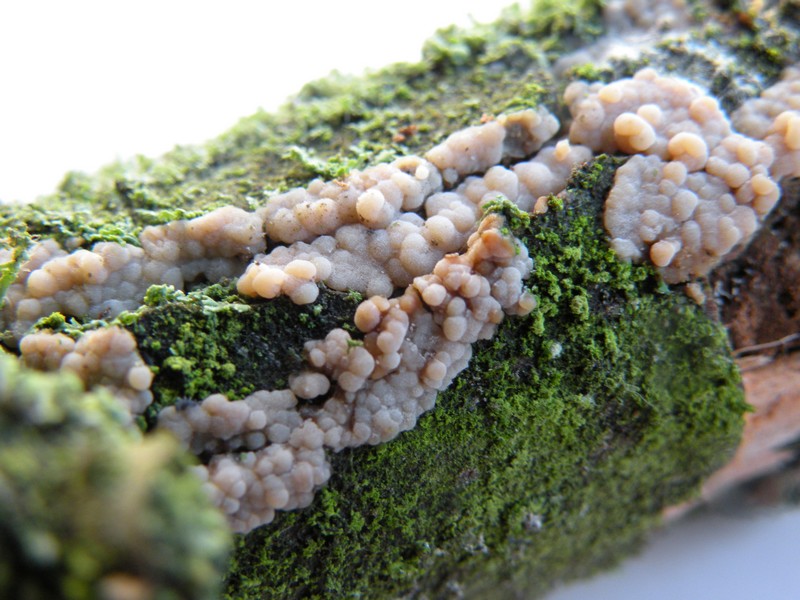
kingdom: Fungi
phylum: Basidiomycota
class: Agaricomycetes
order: Agaricales
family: Radulomycetaceae
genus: Radulomyces
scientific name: Radulomyces confluens
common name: glat naftalinskind
